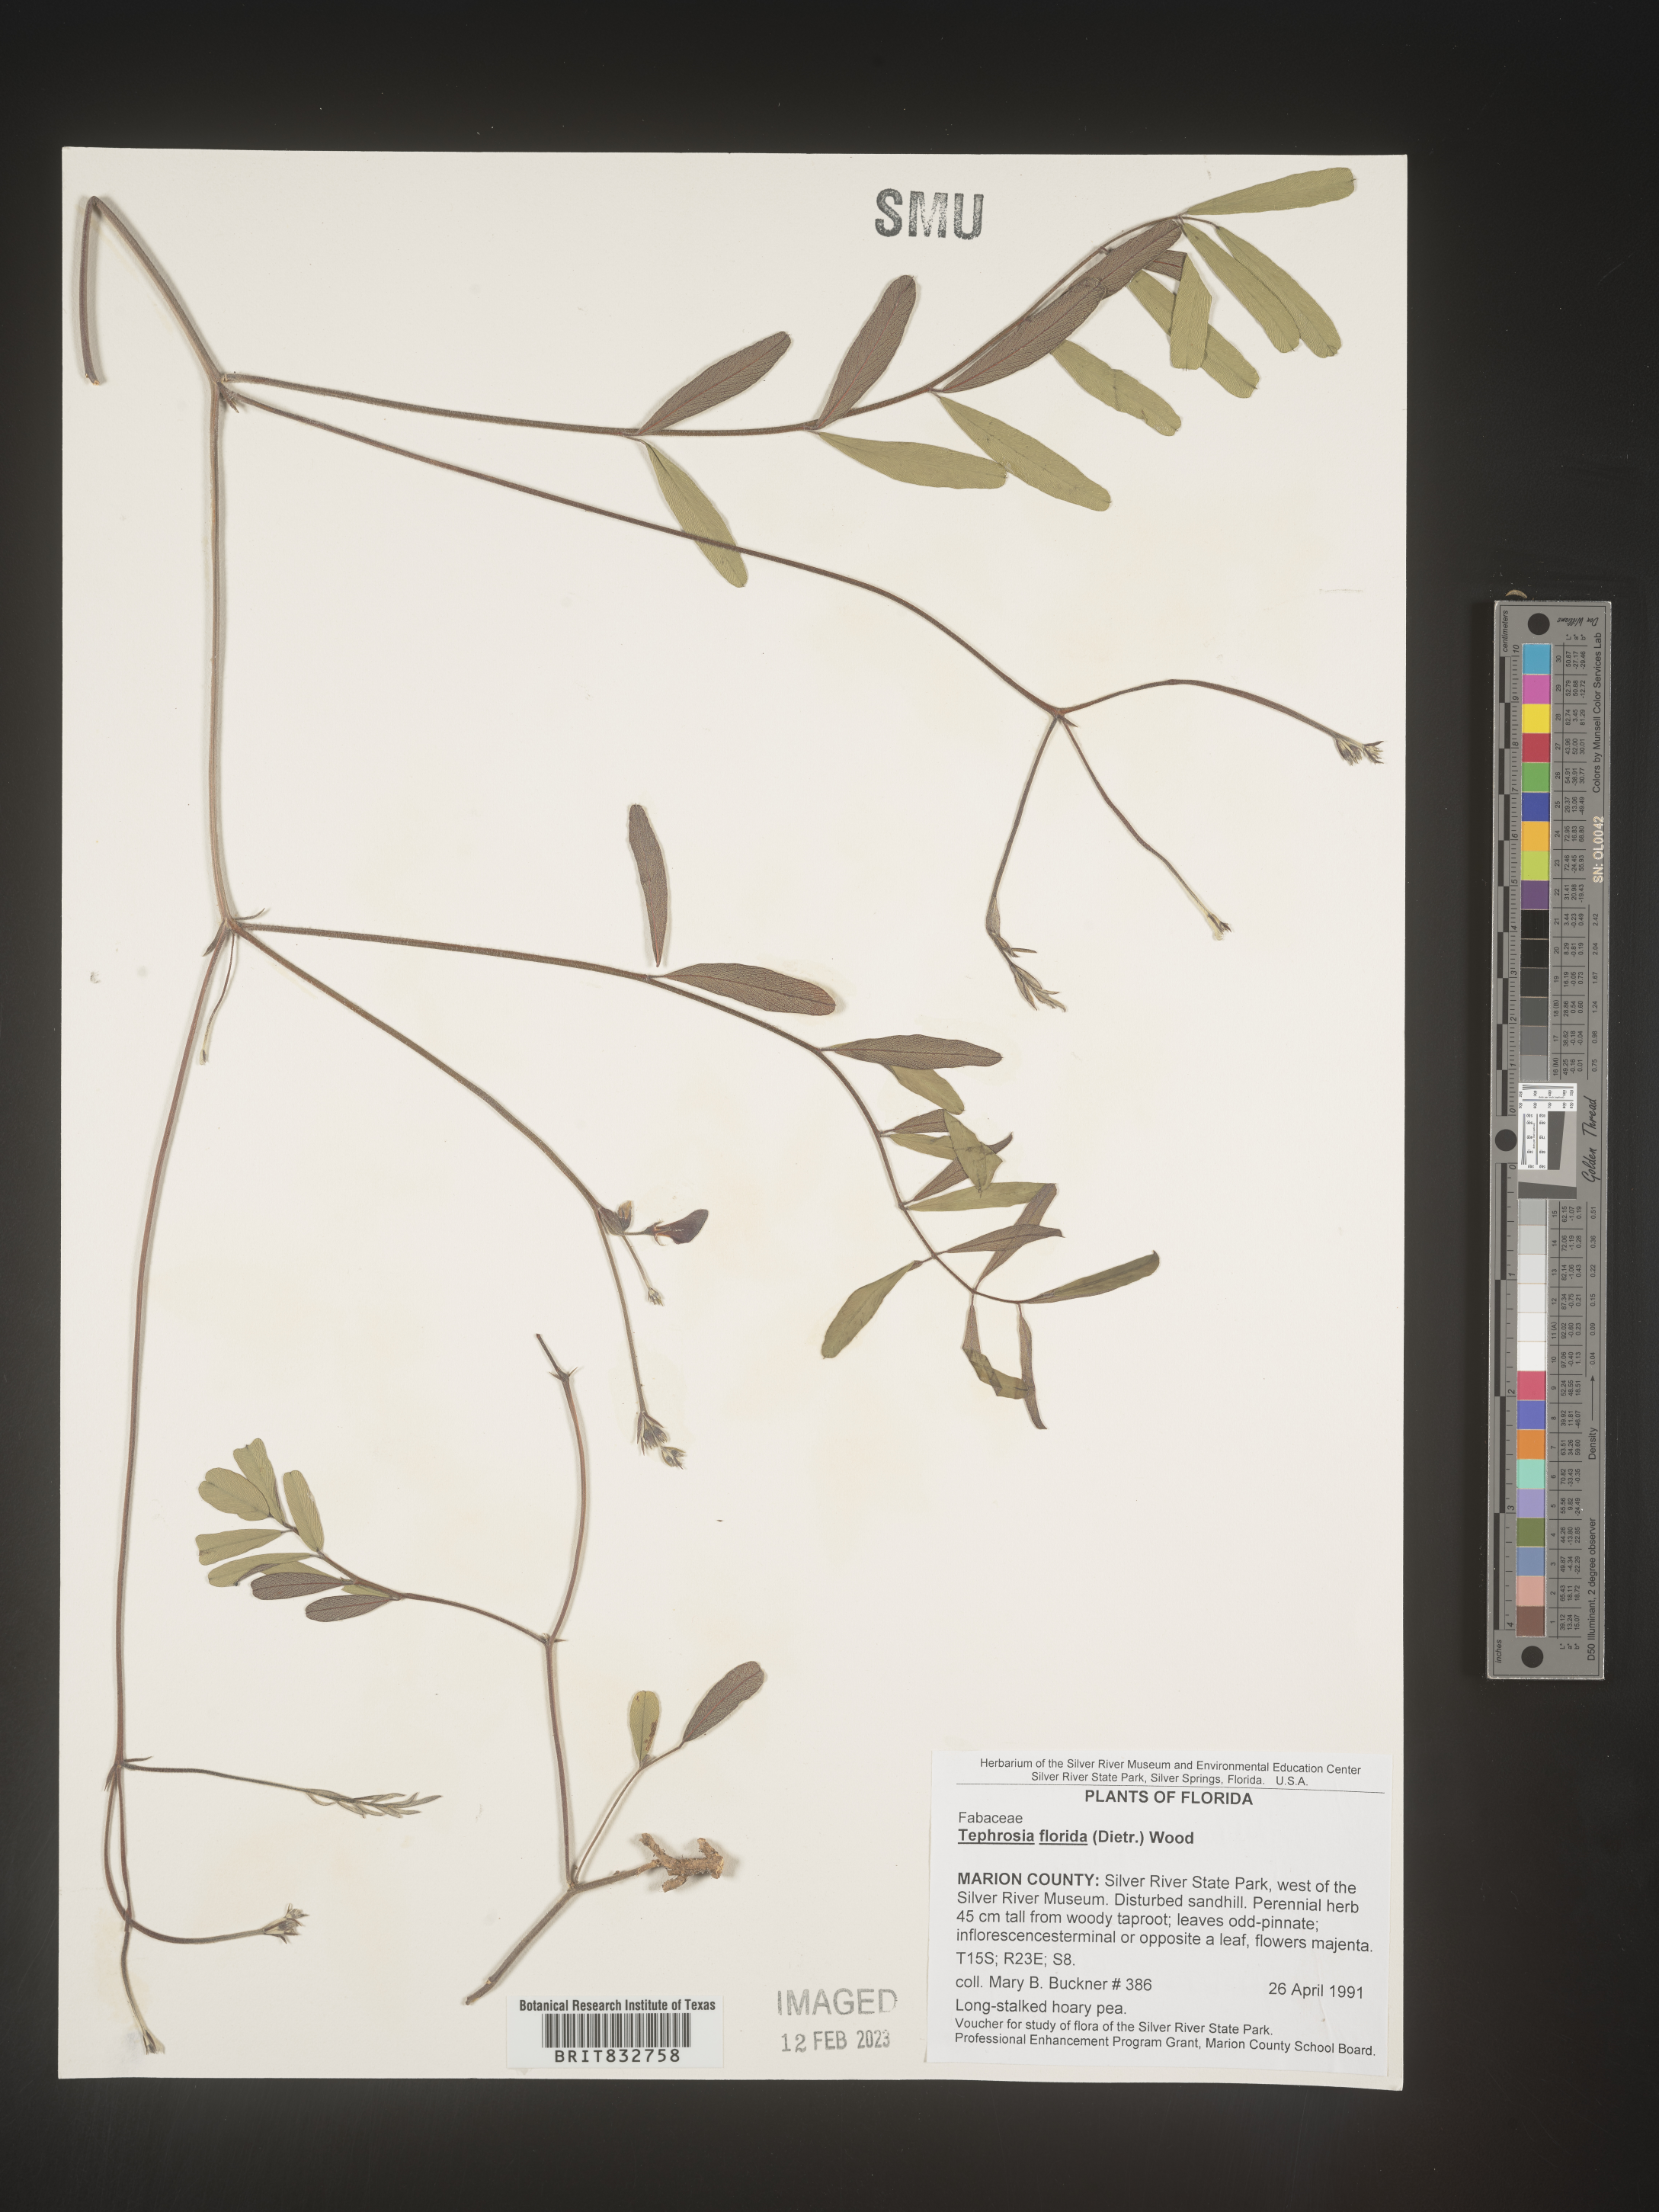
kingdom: Plantae
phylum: Tracheophyta
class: Magnoliopsida
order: Fabales
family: Fabaceae
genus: Tephrosia
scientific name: Tephrosia florida
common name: Florida hoary-pea
